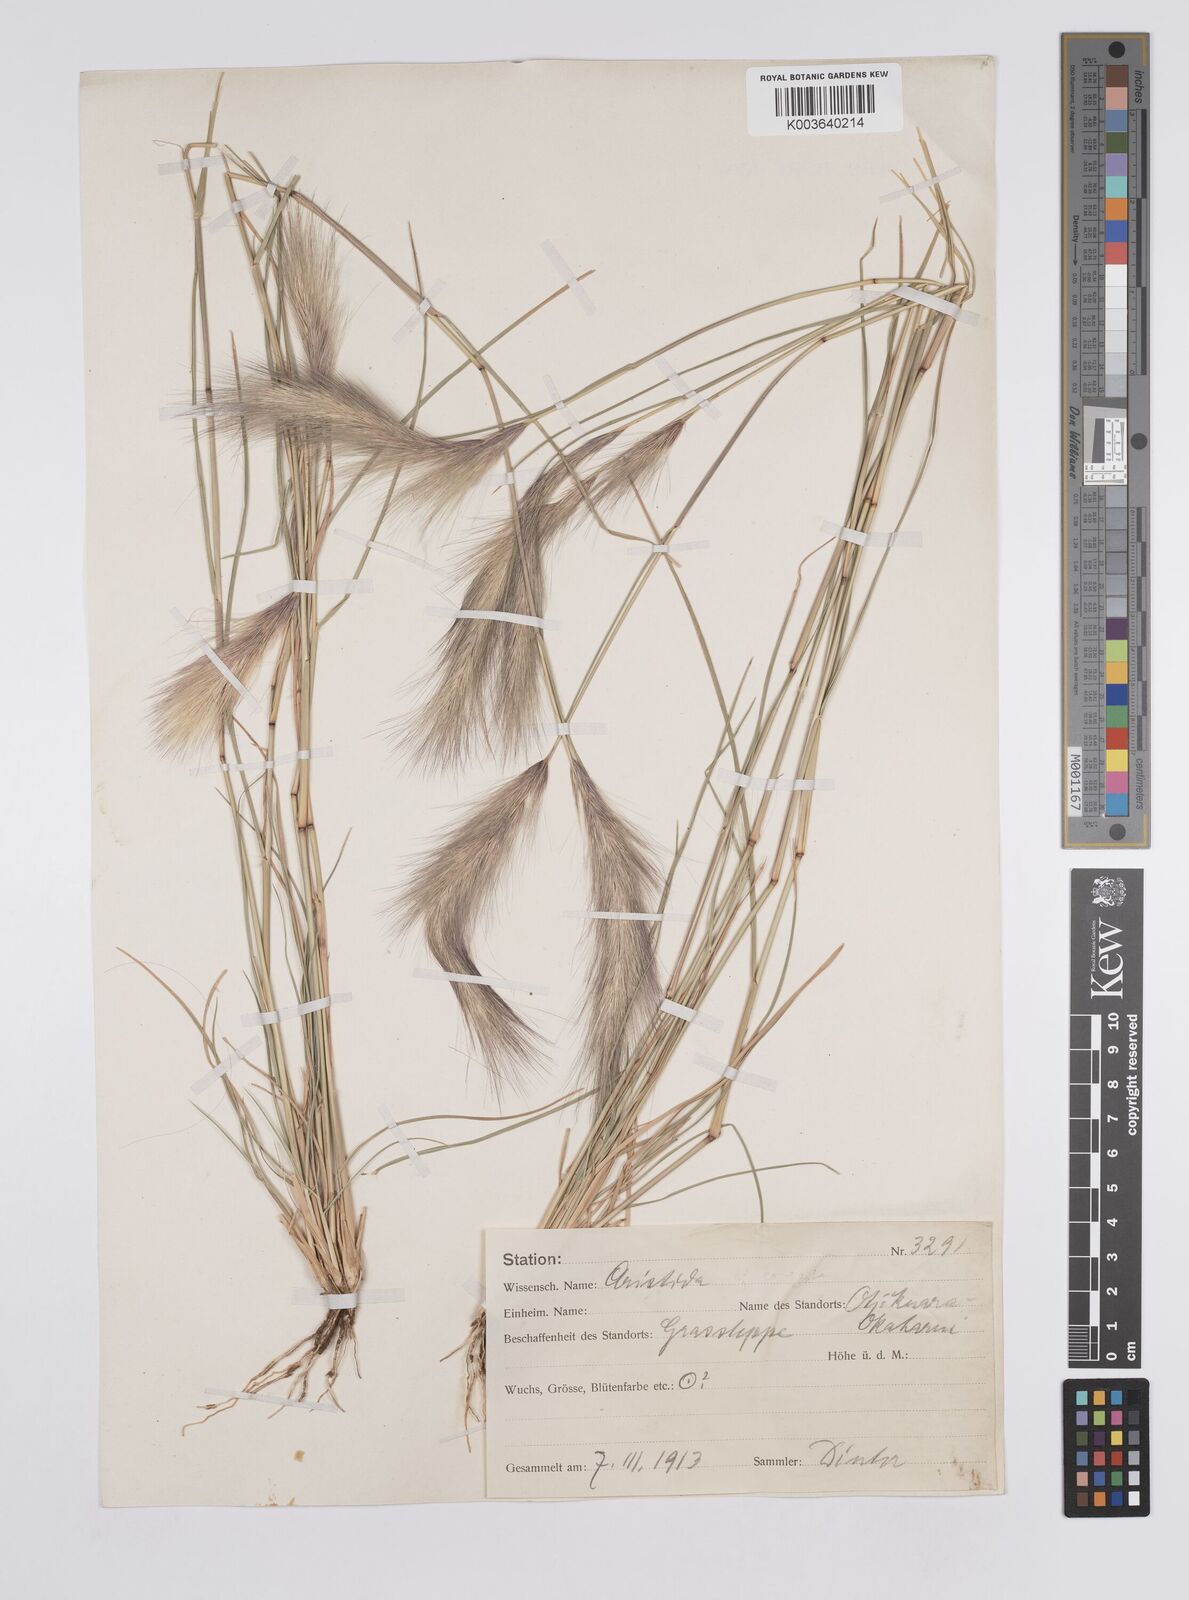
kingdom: Plantae
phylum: Tracheophyta
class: Liliopsida
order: Poales
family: Poaceae
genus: Aristida
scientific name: Aristida congesta
